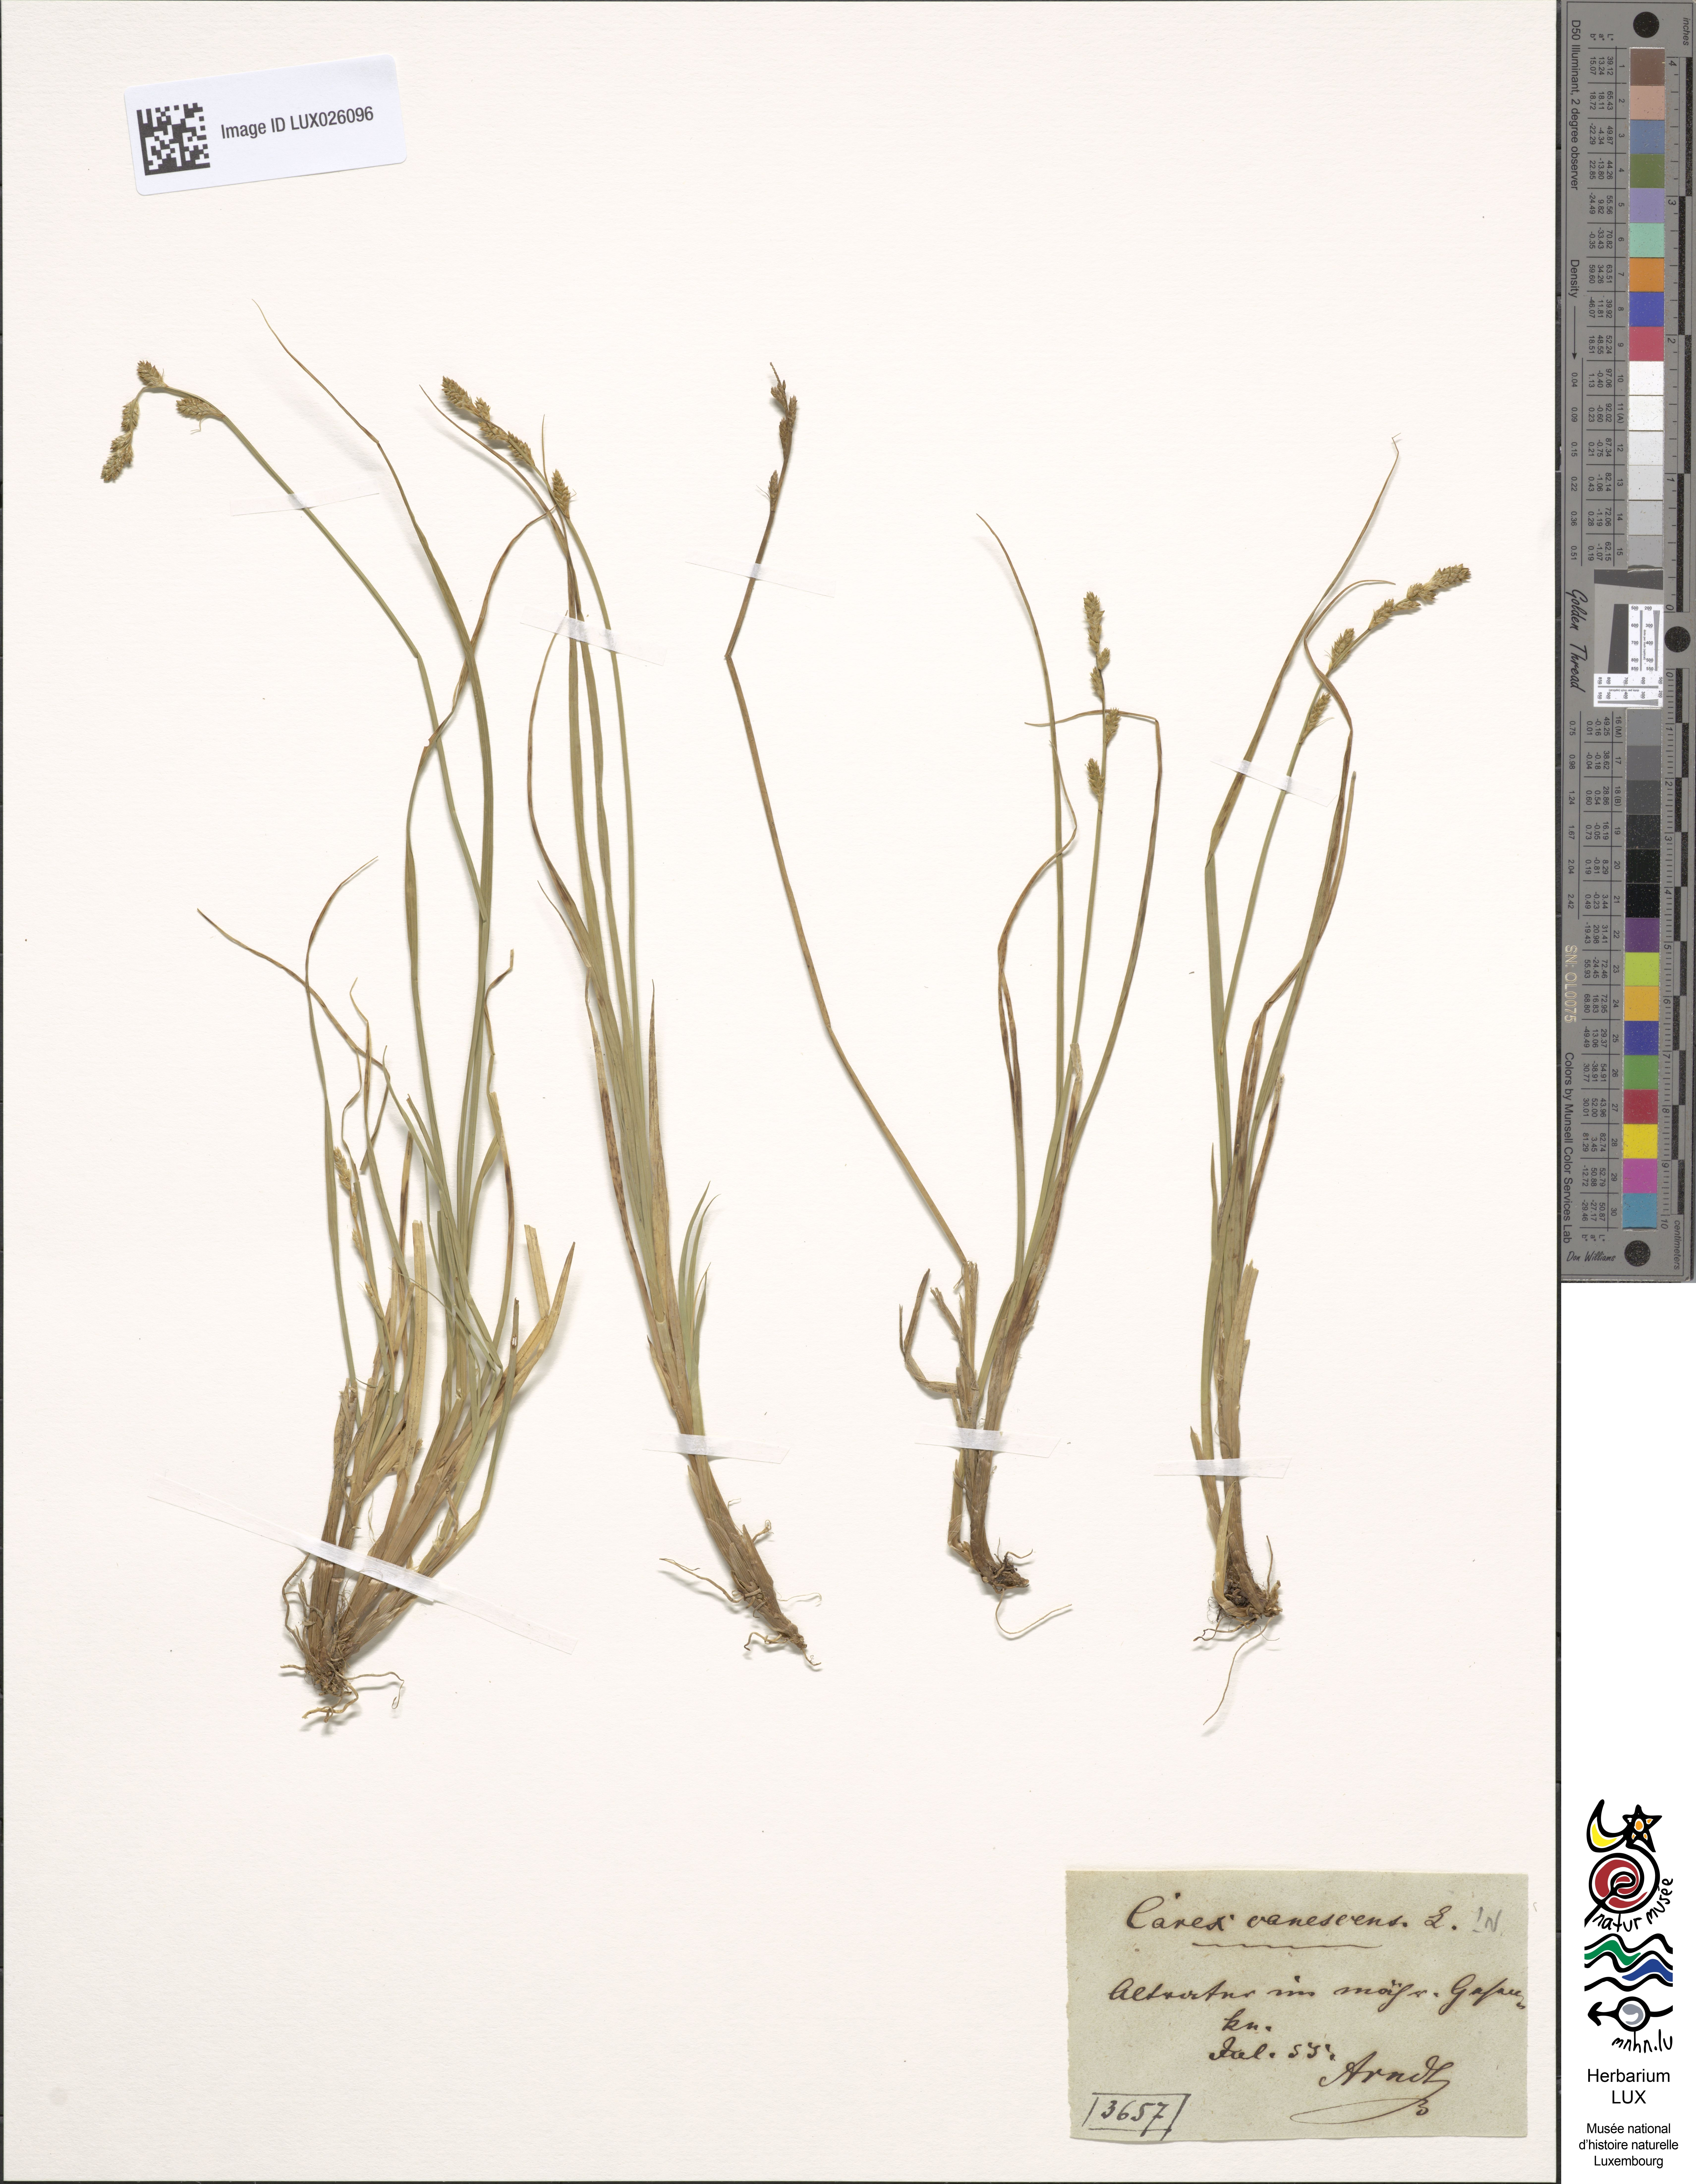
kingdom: Plantae
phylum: Tracheophyta
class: Liliopsida
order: Poales
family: Cyperaceae
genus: Carex
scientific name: Carex canescens
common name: White sedge
